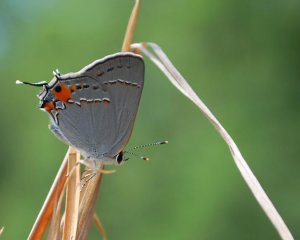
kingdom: Animalia
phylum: Arthropoda
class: Insecta
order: Lepidoptera
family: Lycaenidae
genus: Strymon
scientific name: Strymon melinus
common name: Gray Hairstreak
